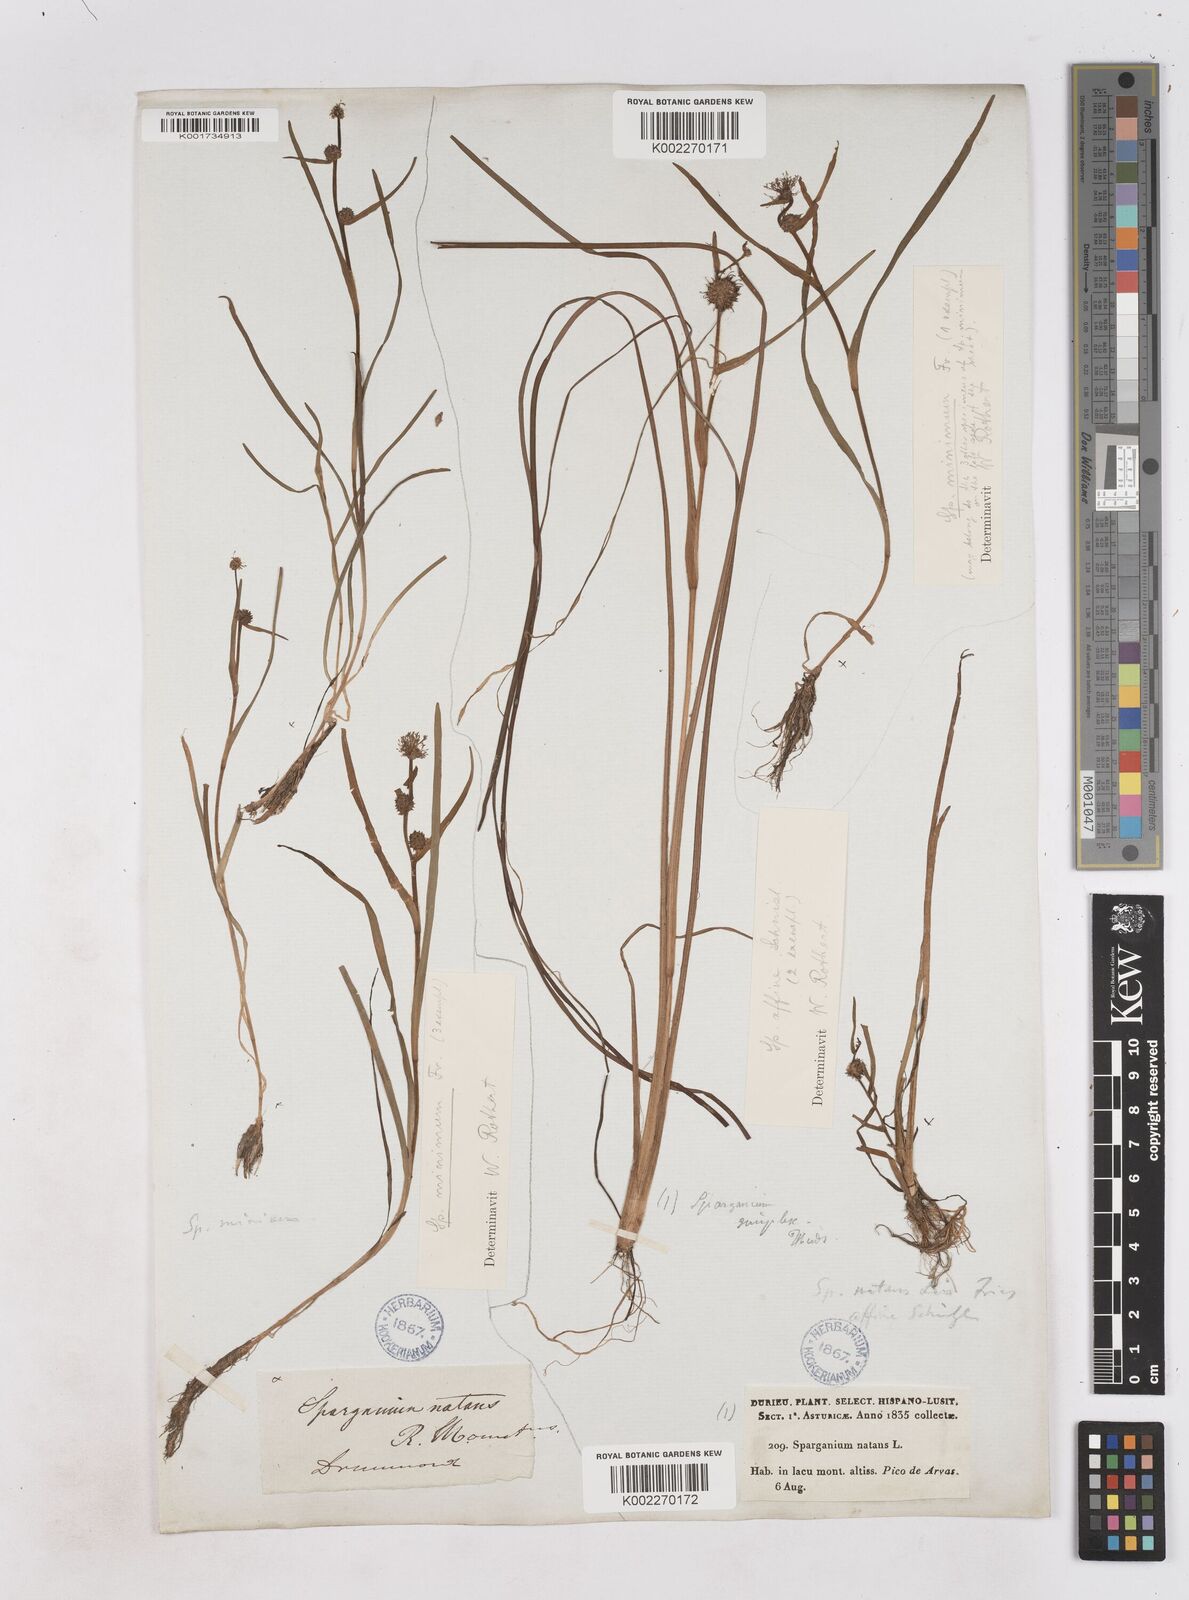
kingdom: Plantae
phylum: Tracheophyta
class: Liliopsida
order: Poales
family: Typhaceae
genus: Sparganium
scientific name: Sparganium natans
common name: Least bur-reed
